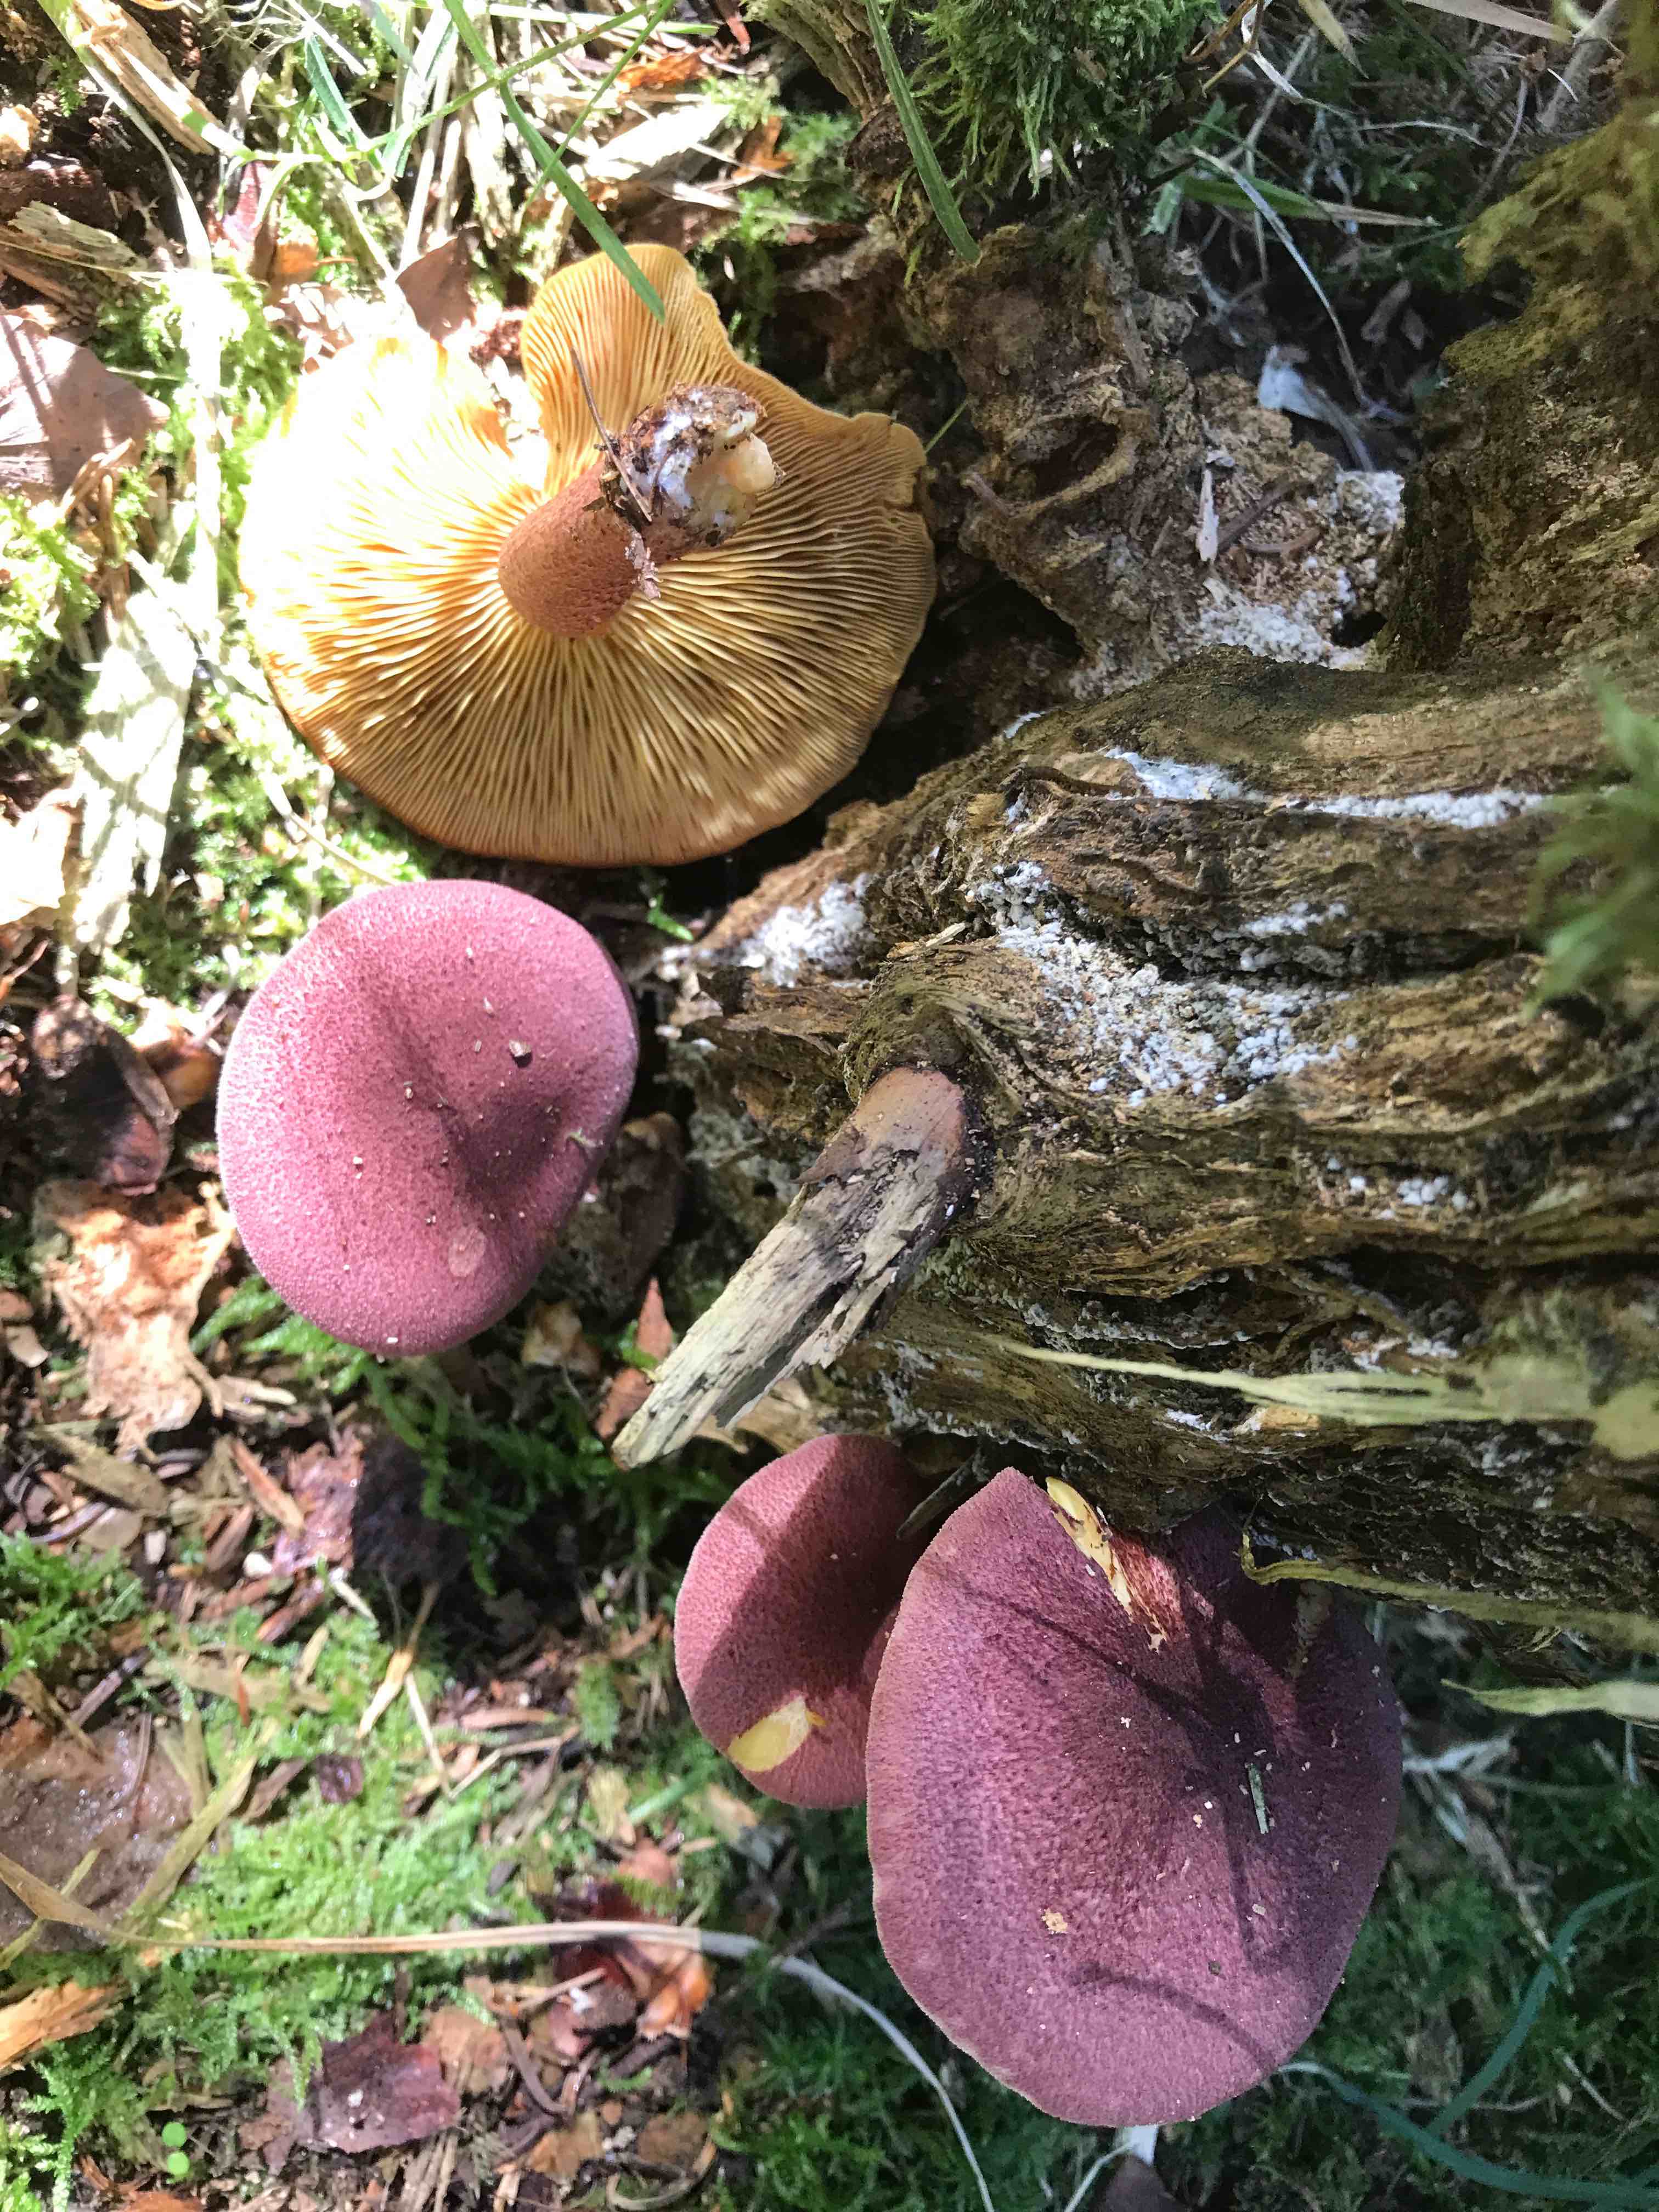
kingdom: Fungi
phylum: Basidiomycota
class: Agaricomycetes
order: Agaricales
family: Tricholomataceae
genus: Tricholomopsis
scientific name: Tricholomopsis rutilans
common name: purpur-væbnerhat
